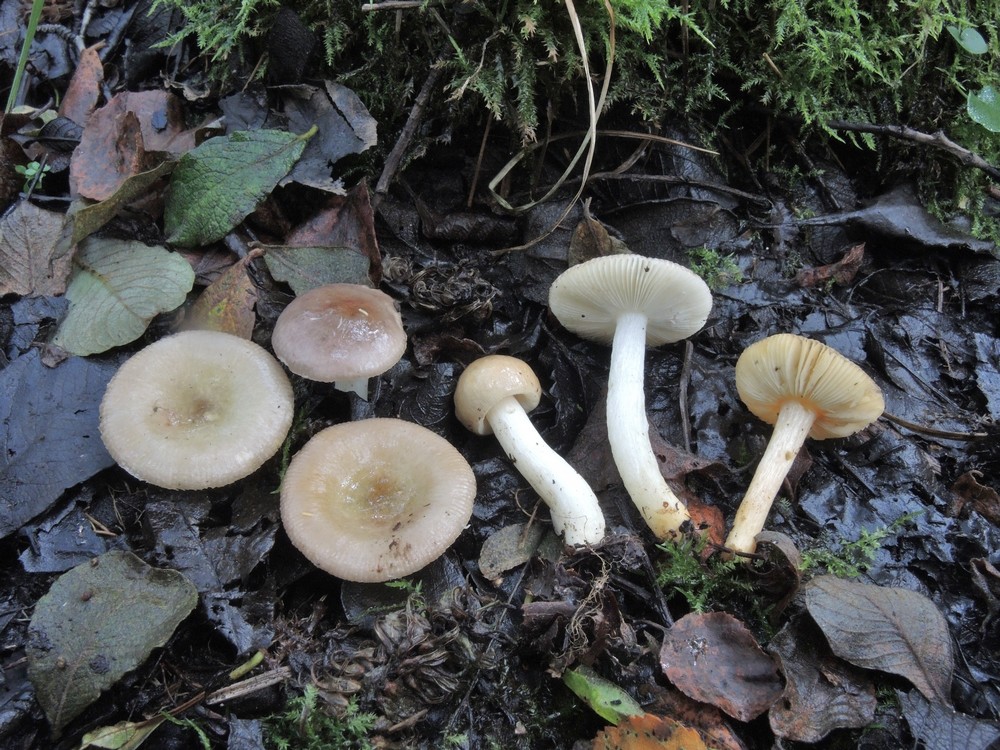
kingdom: Fungi
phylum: Basidiomycota
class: Agaricomycetes
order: Russulales
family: Russulaceae
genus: Russula
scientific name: Russula versicolor
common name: foranderlig skørhat
